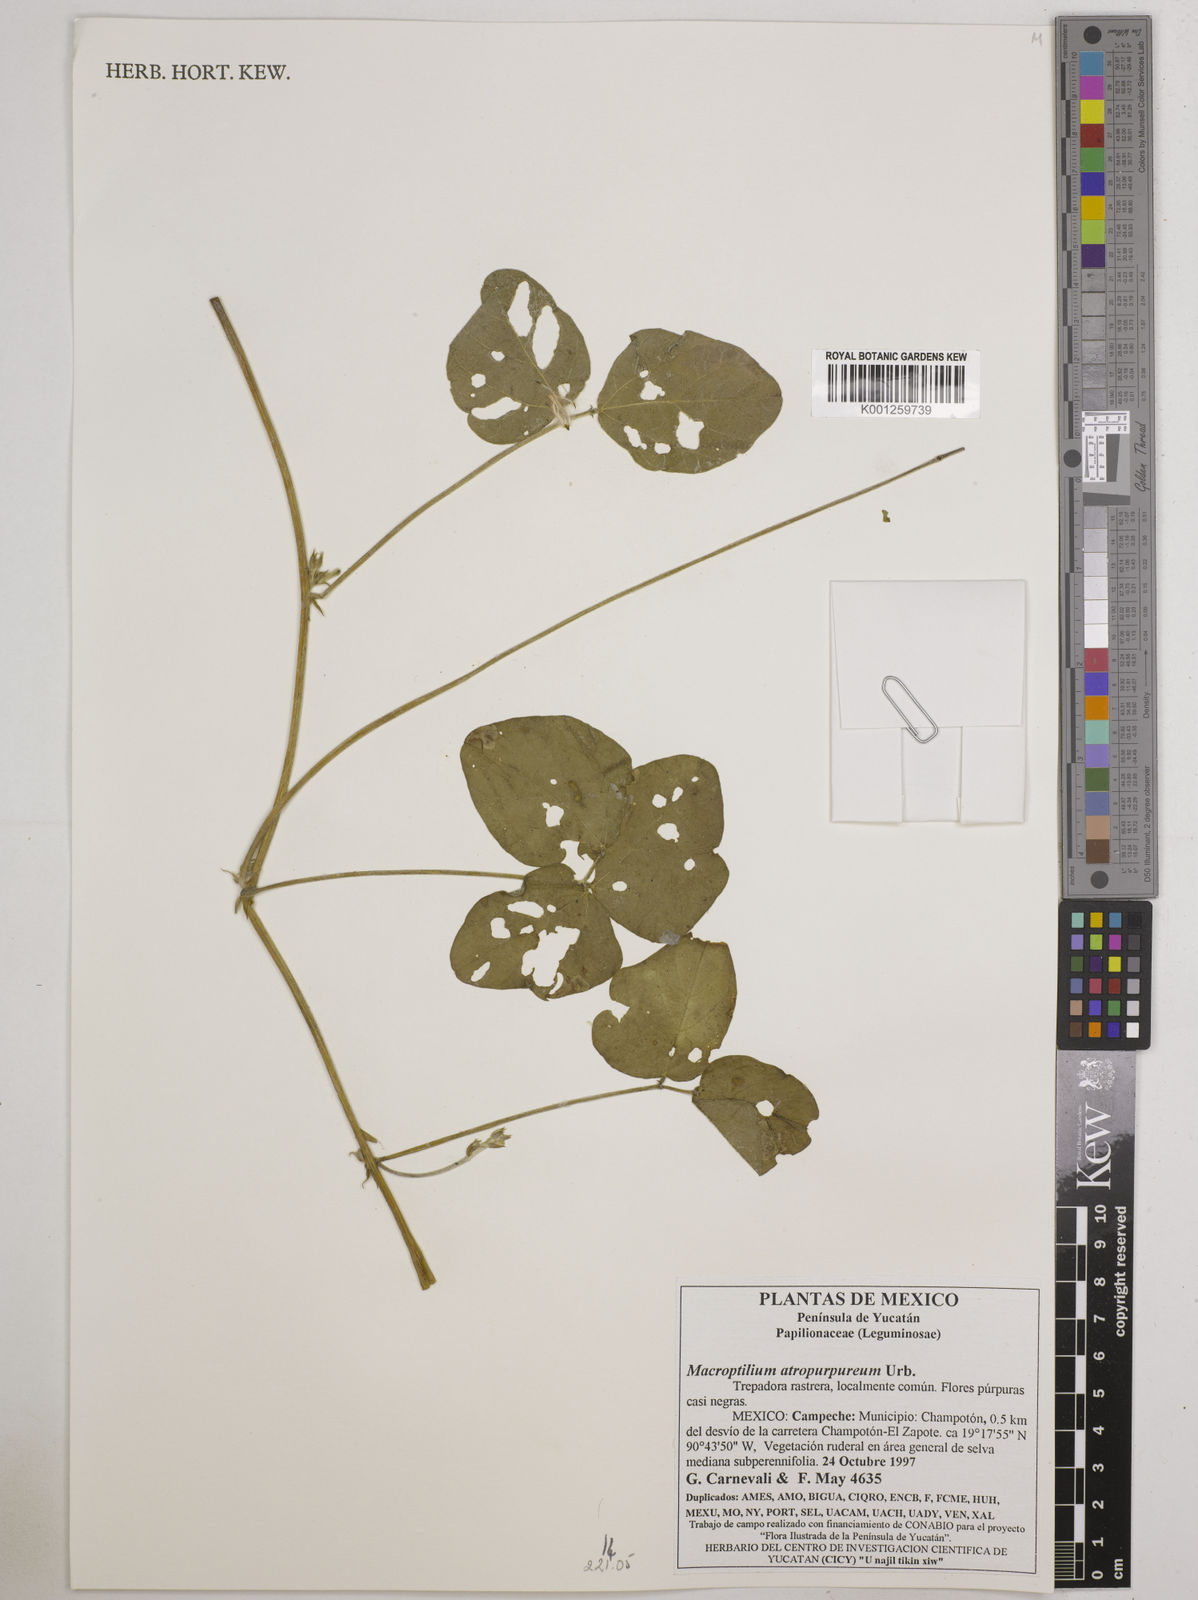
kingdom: Plantae
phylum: Tracheophyta
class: Magnoliopsida
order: Fabales
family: Fabaceae
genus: Macroptilium
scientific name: Macroptilium atropurpureum
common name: Purple bushbean
